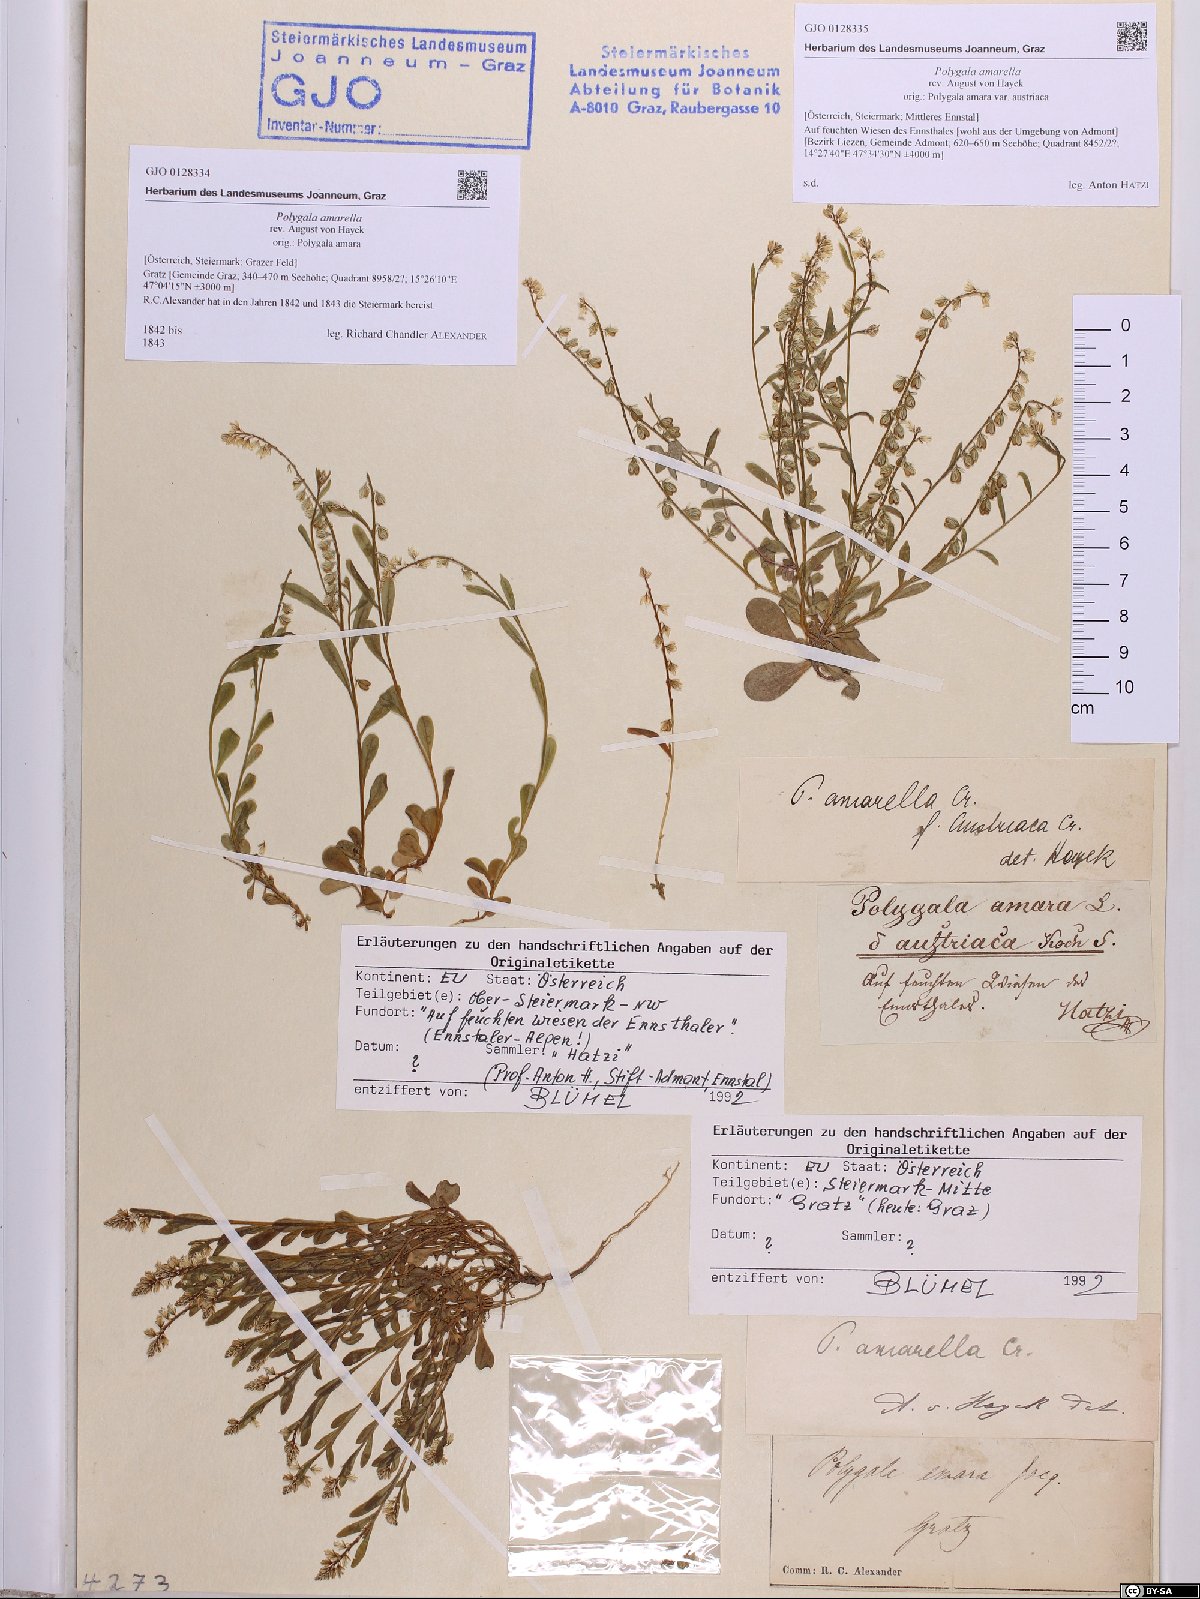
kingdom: Plantae
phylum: Tracheophyta
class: Magnoliopsida
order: Fabales
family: Polygalaceae
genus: Polygala
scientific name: Polygala amarella
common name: Dwarf milkwort
